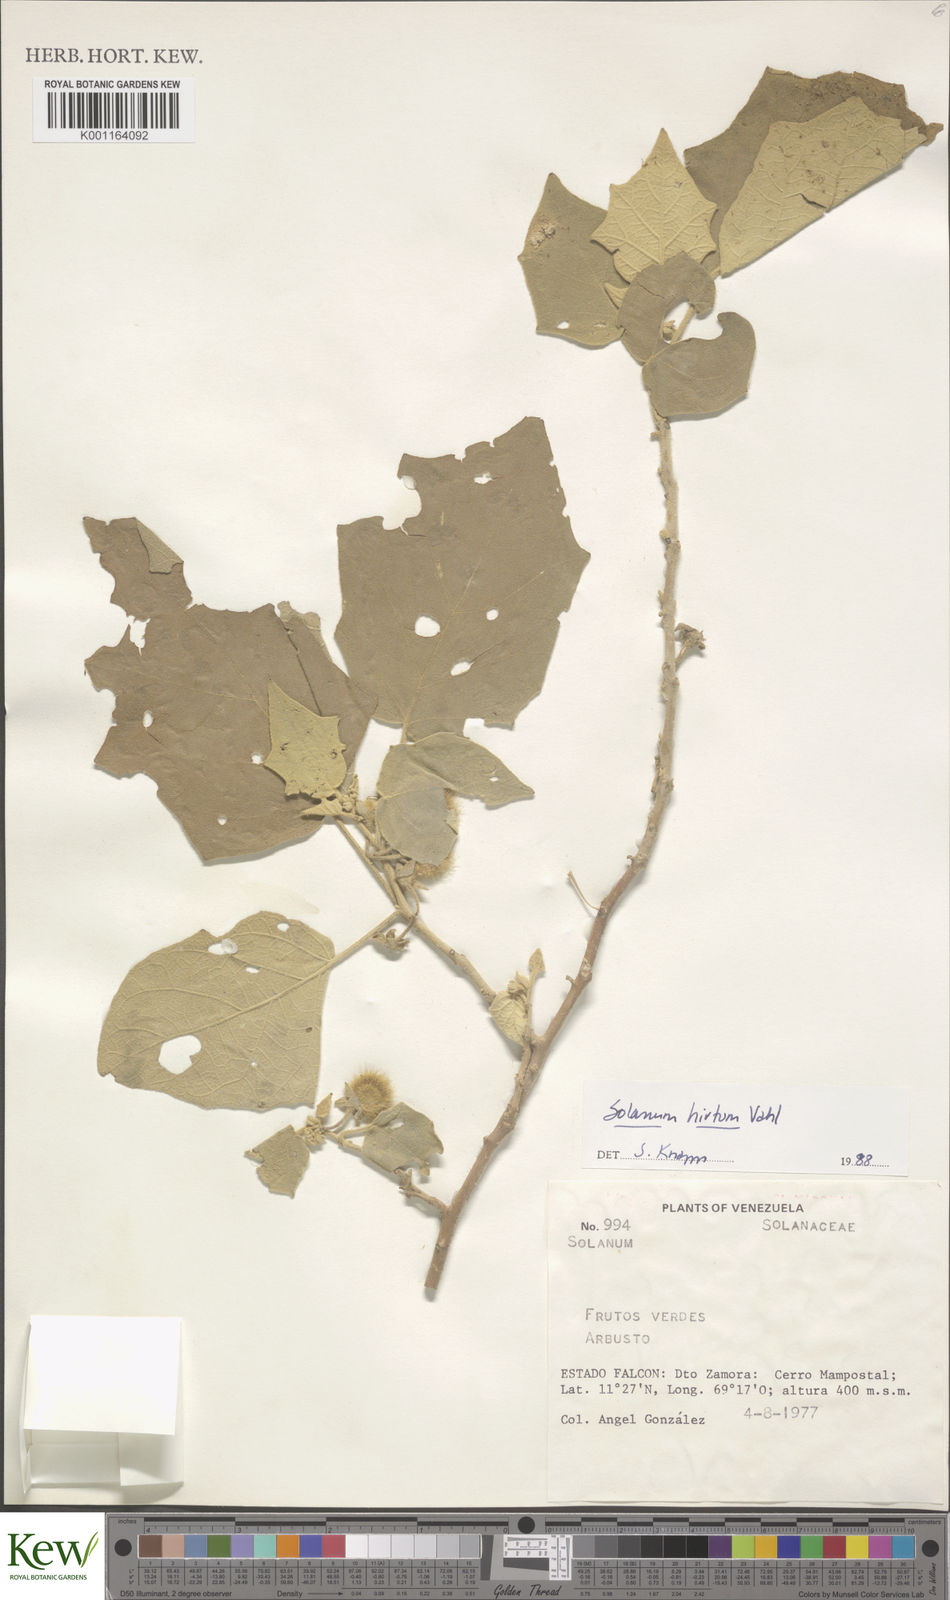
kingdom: Plantae
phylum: Tracheophyta
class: Magnoliopsida
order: Solanales
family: Solanaceae
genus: Solanum
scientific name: Solanum hirtum
